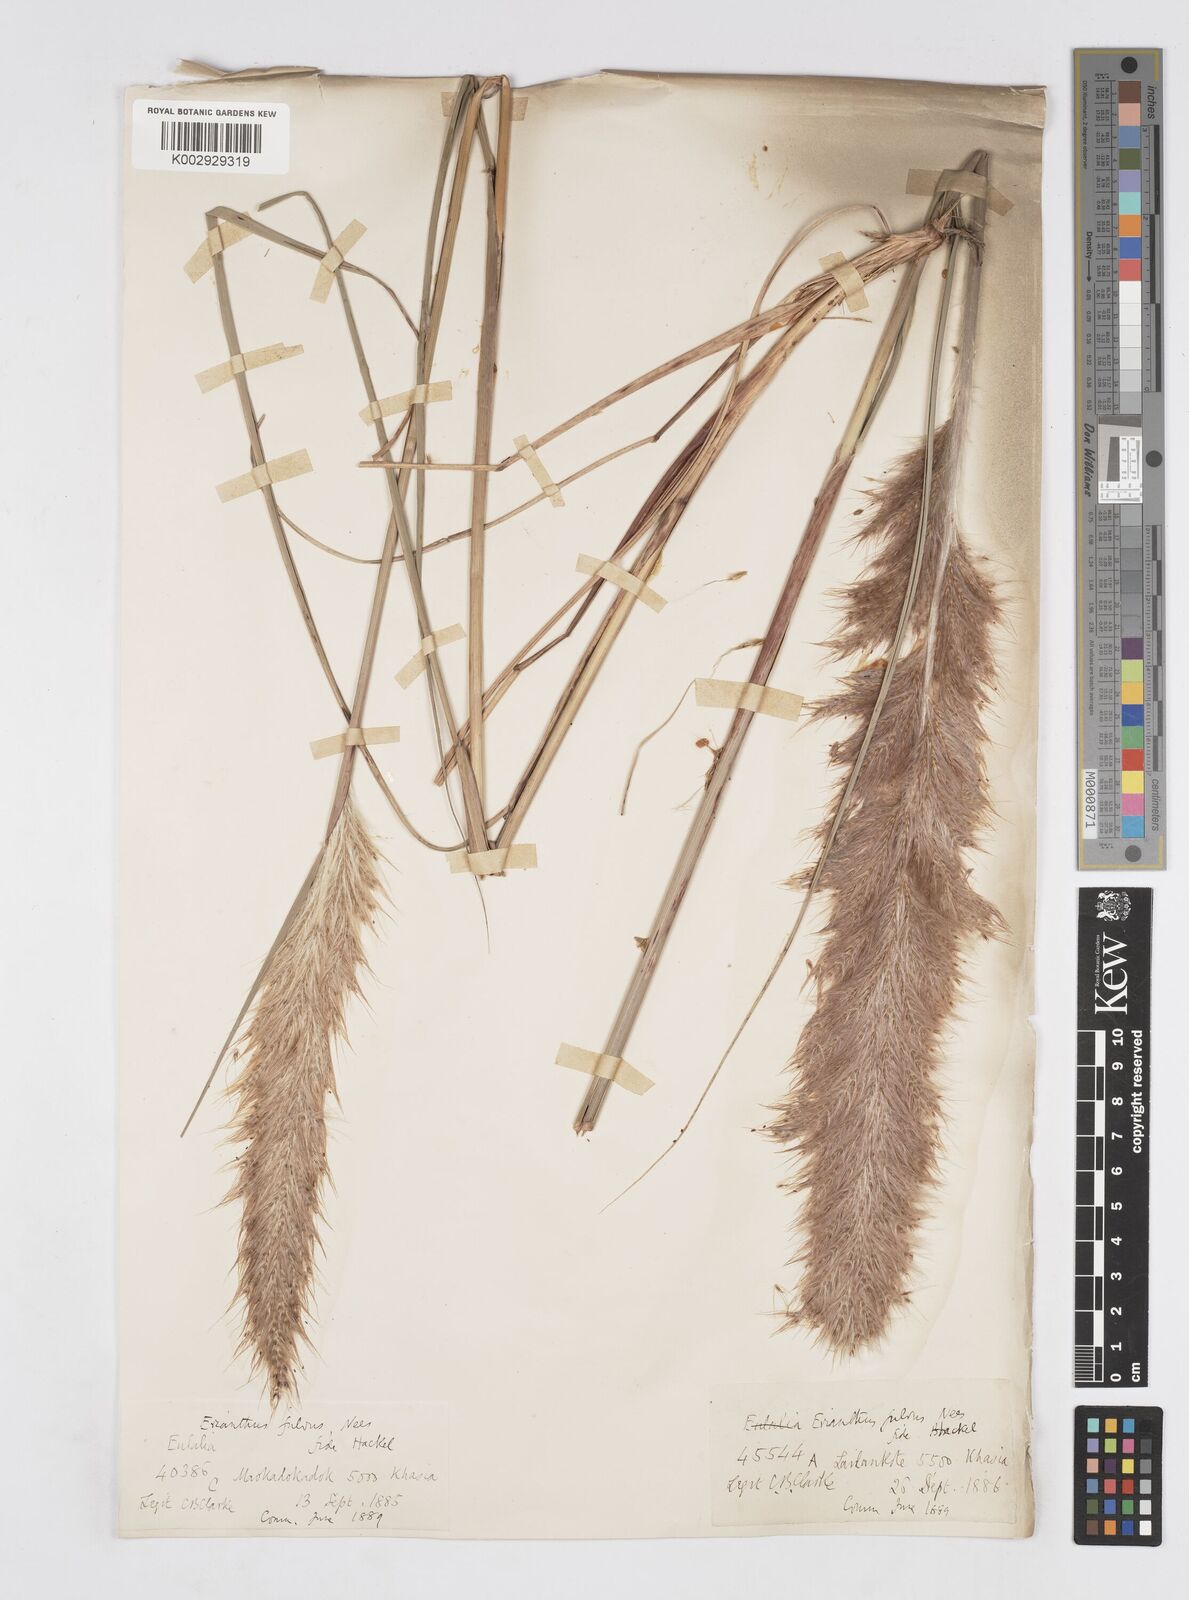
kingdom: Plantae
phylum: Tracheophyta
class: Liliopsida
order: Poales
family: Poaceae
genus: Tripidium
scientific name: Tripidium rufipilum
